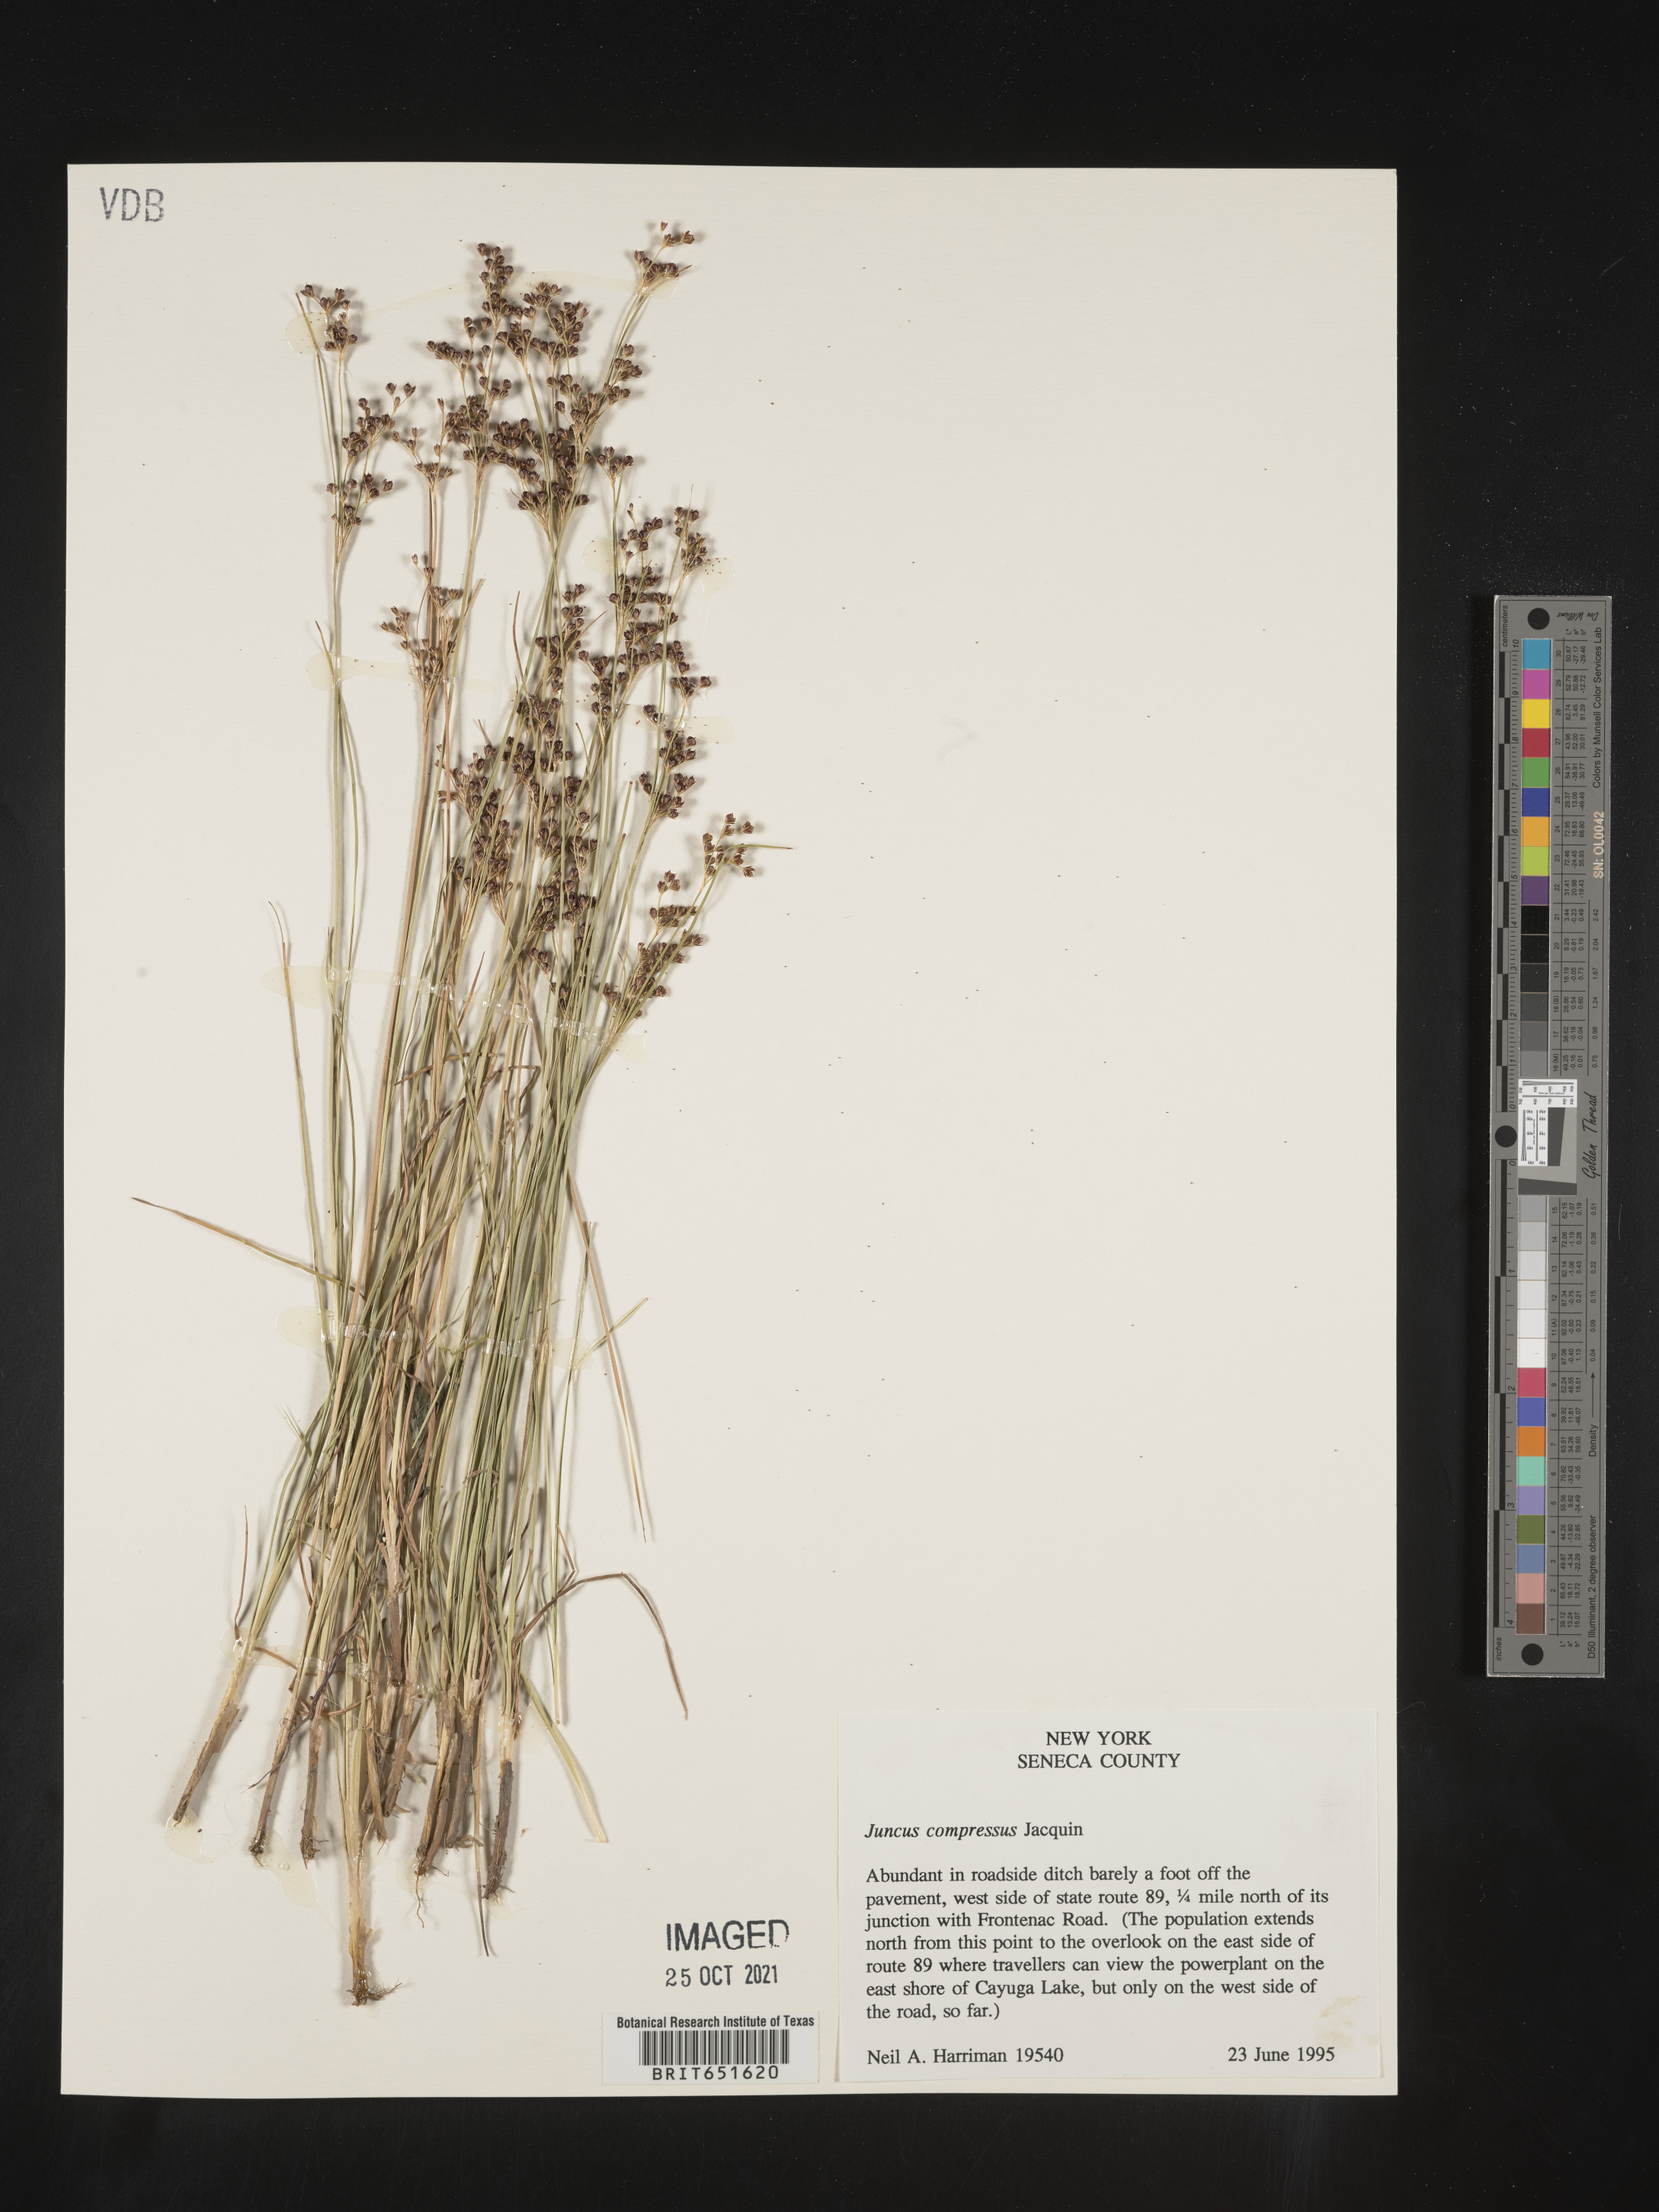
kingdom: Plantae
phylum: Tracheophyta
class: Liliopsida
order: Poales
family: Juncaceae
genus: Juncus
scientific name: Juncus compressus
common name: Round-fruited rush
